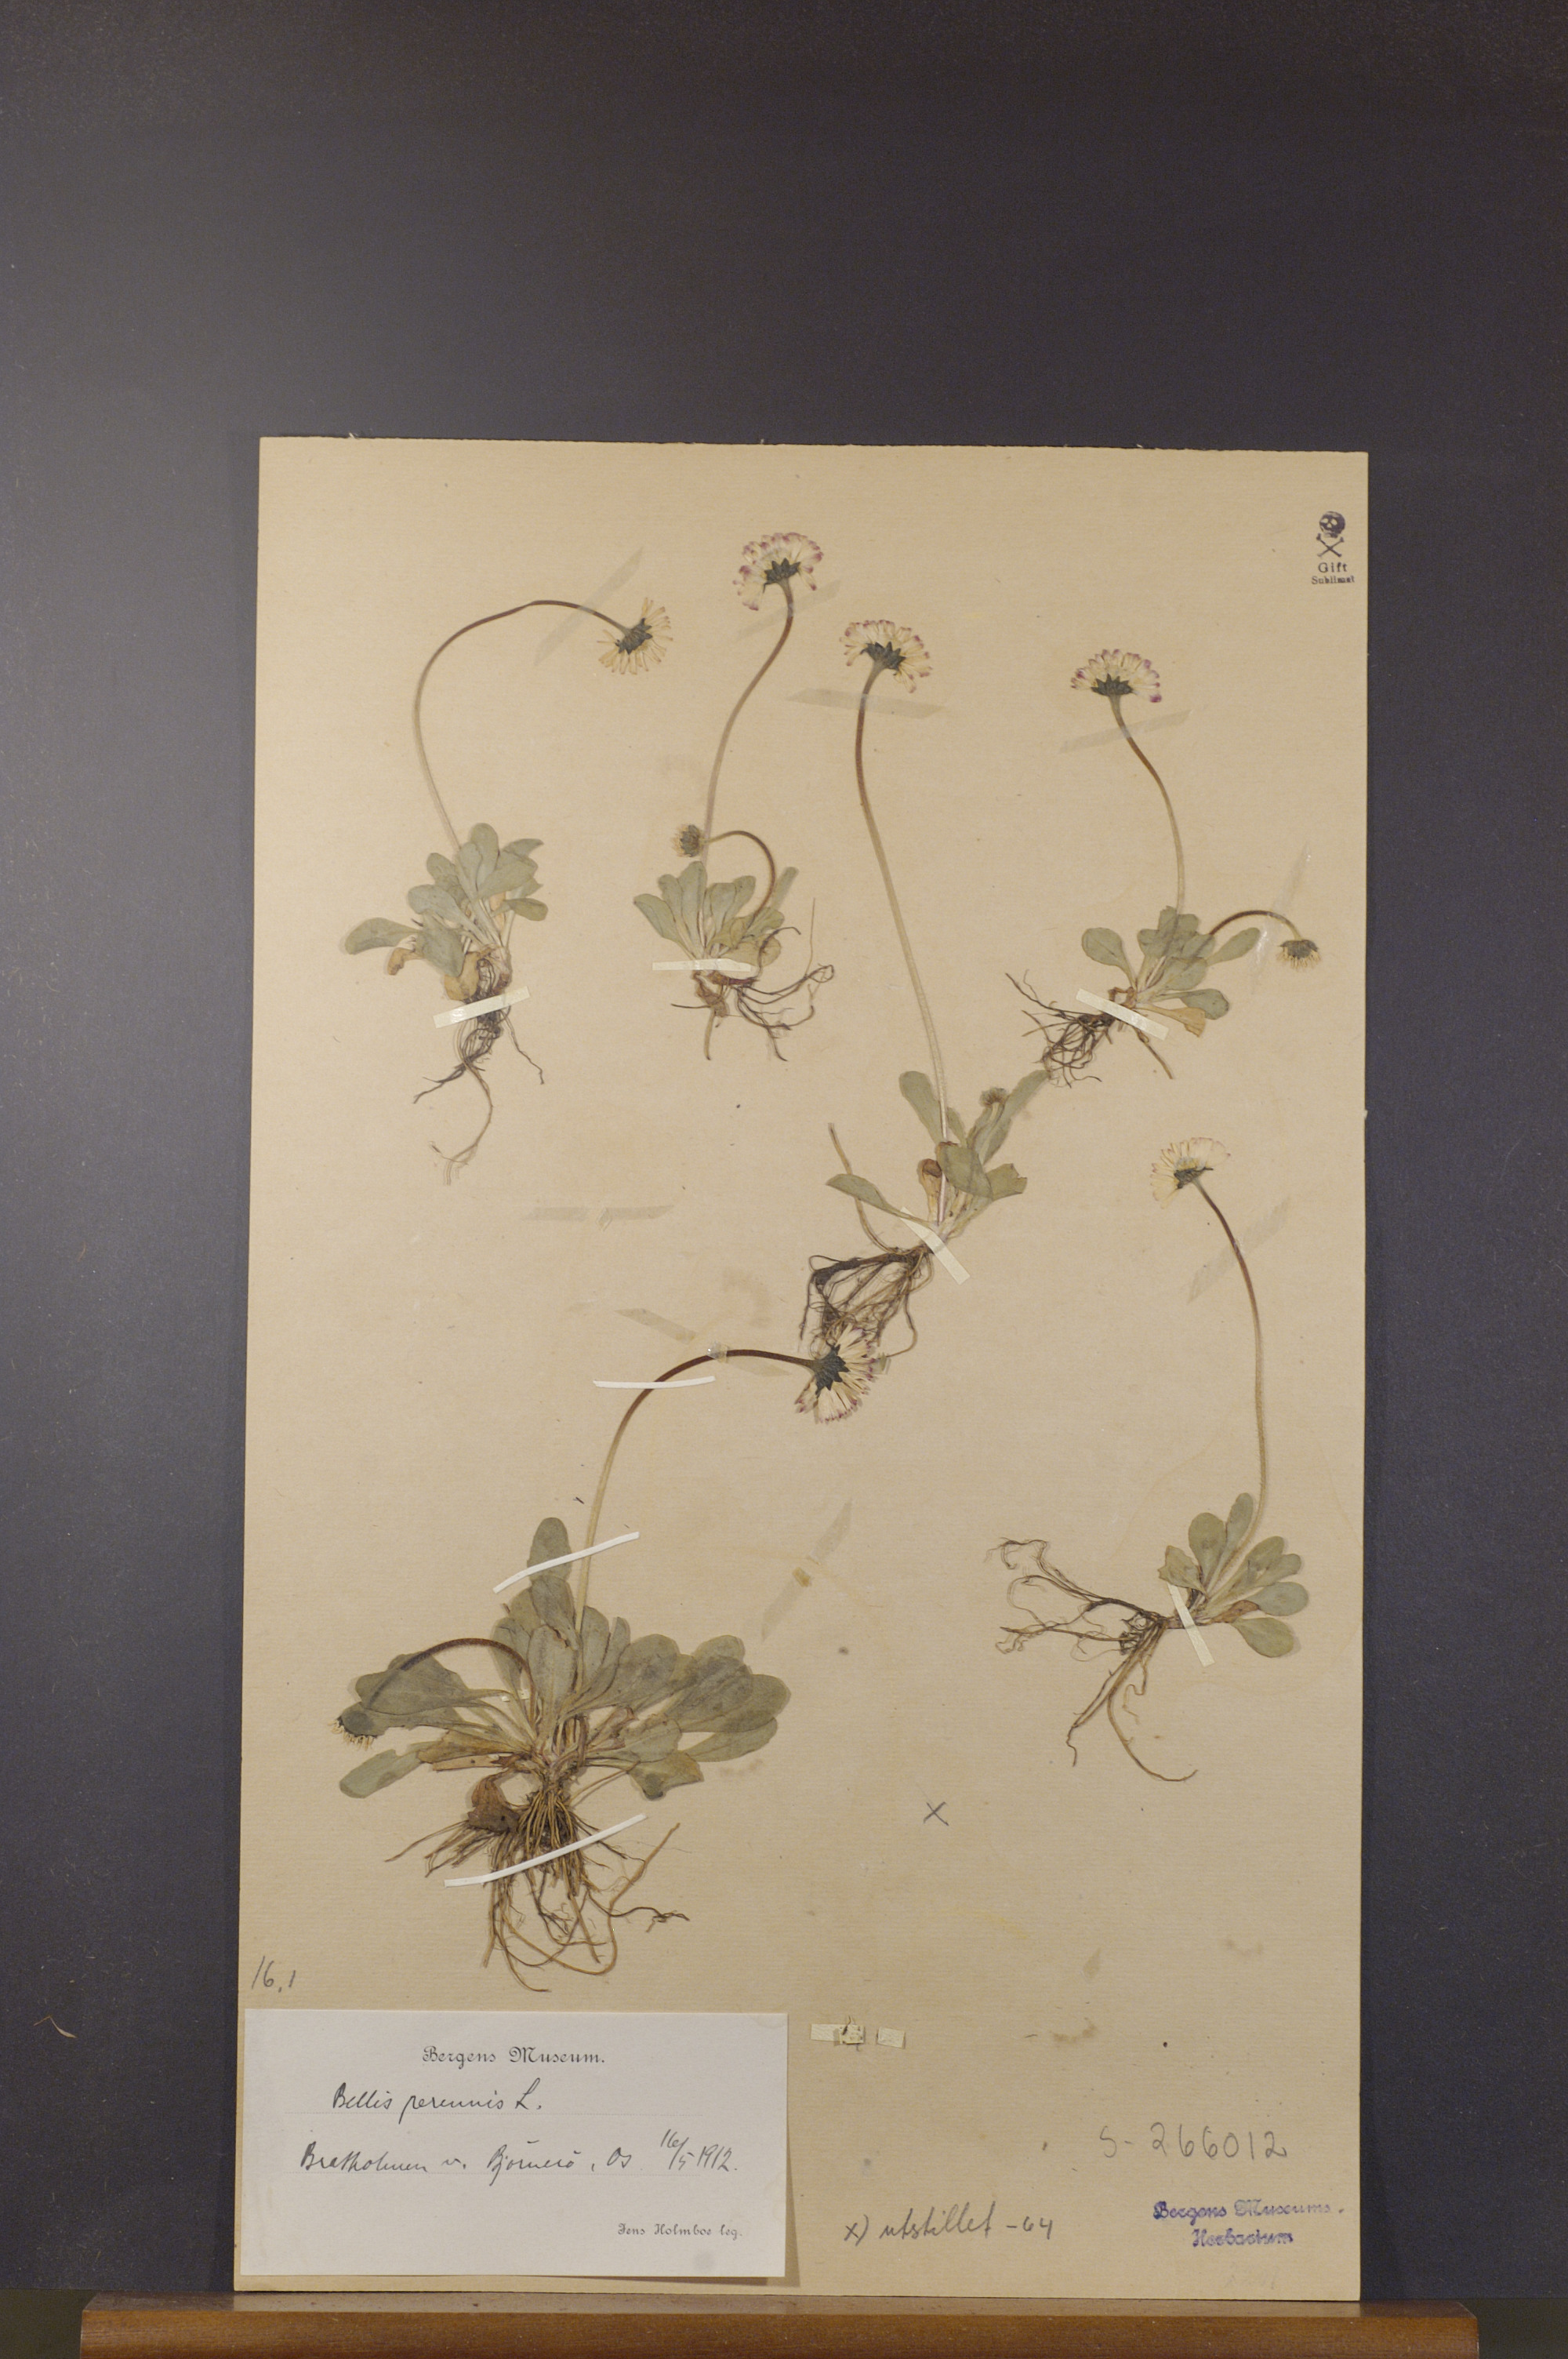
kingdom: Plantae
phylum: Tracheophyta
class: Magnoliopsida
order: Asterales
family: Asteraceae
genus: Bellis
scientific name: Bellis perennis
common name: Lawndaisy
